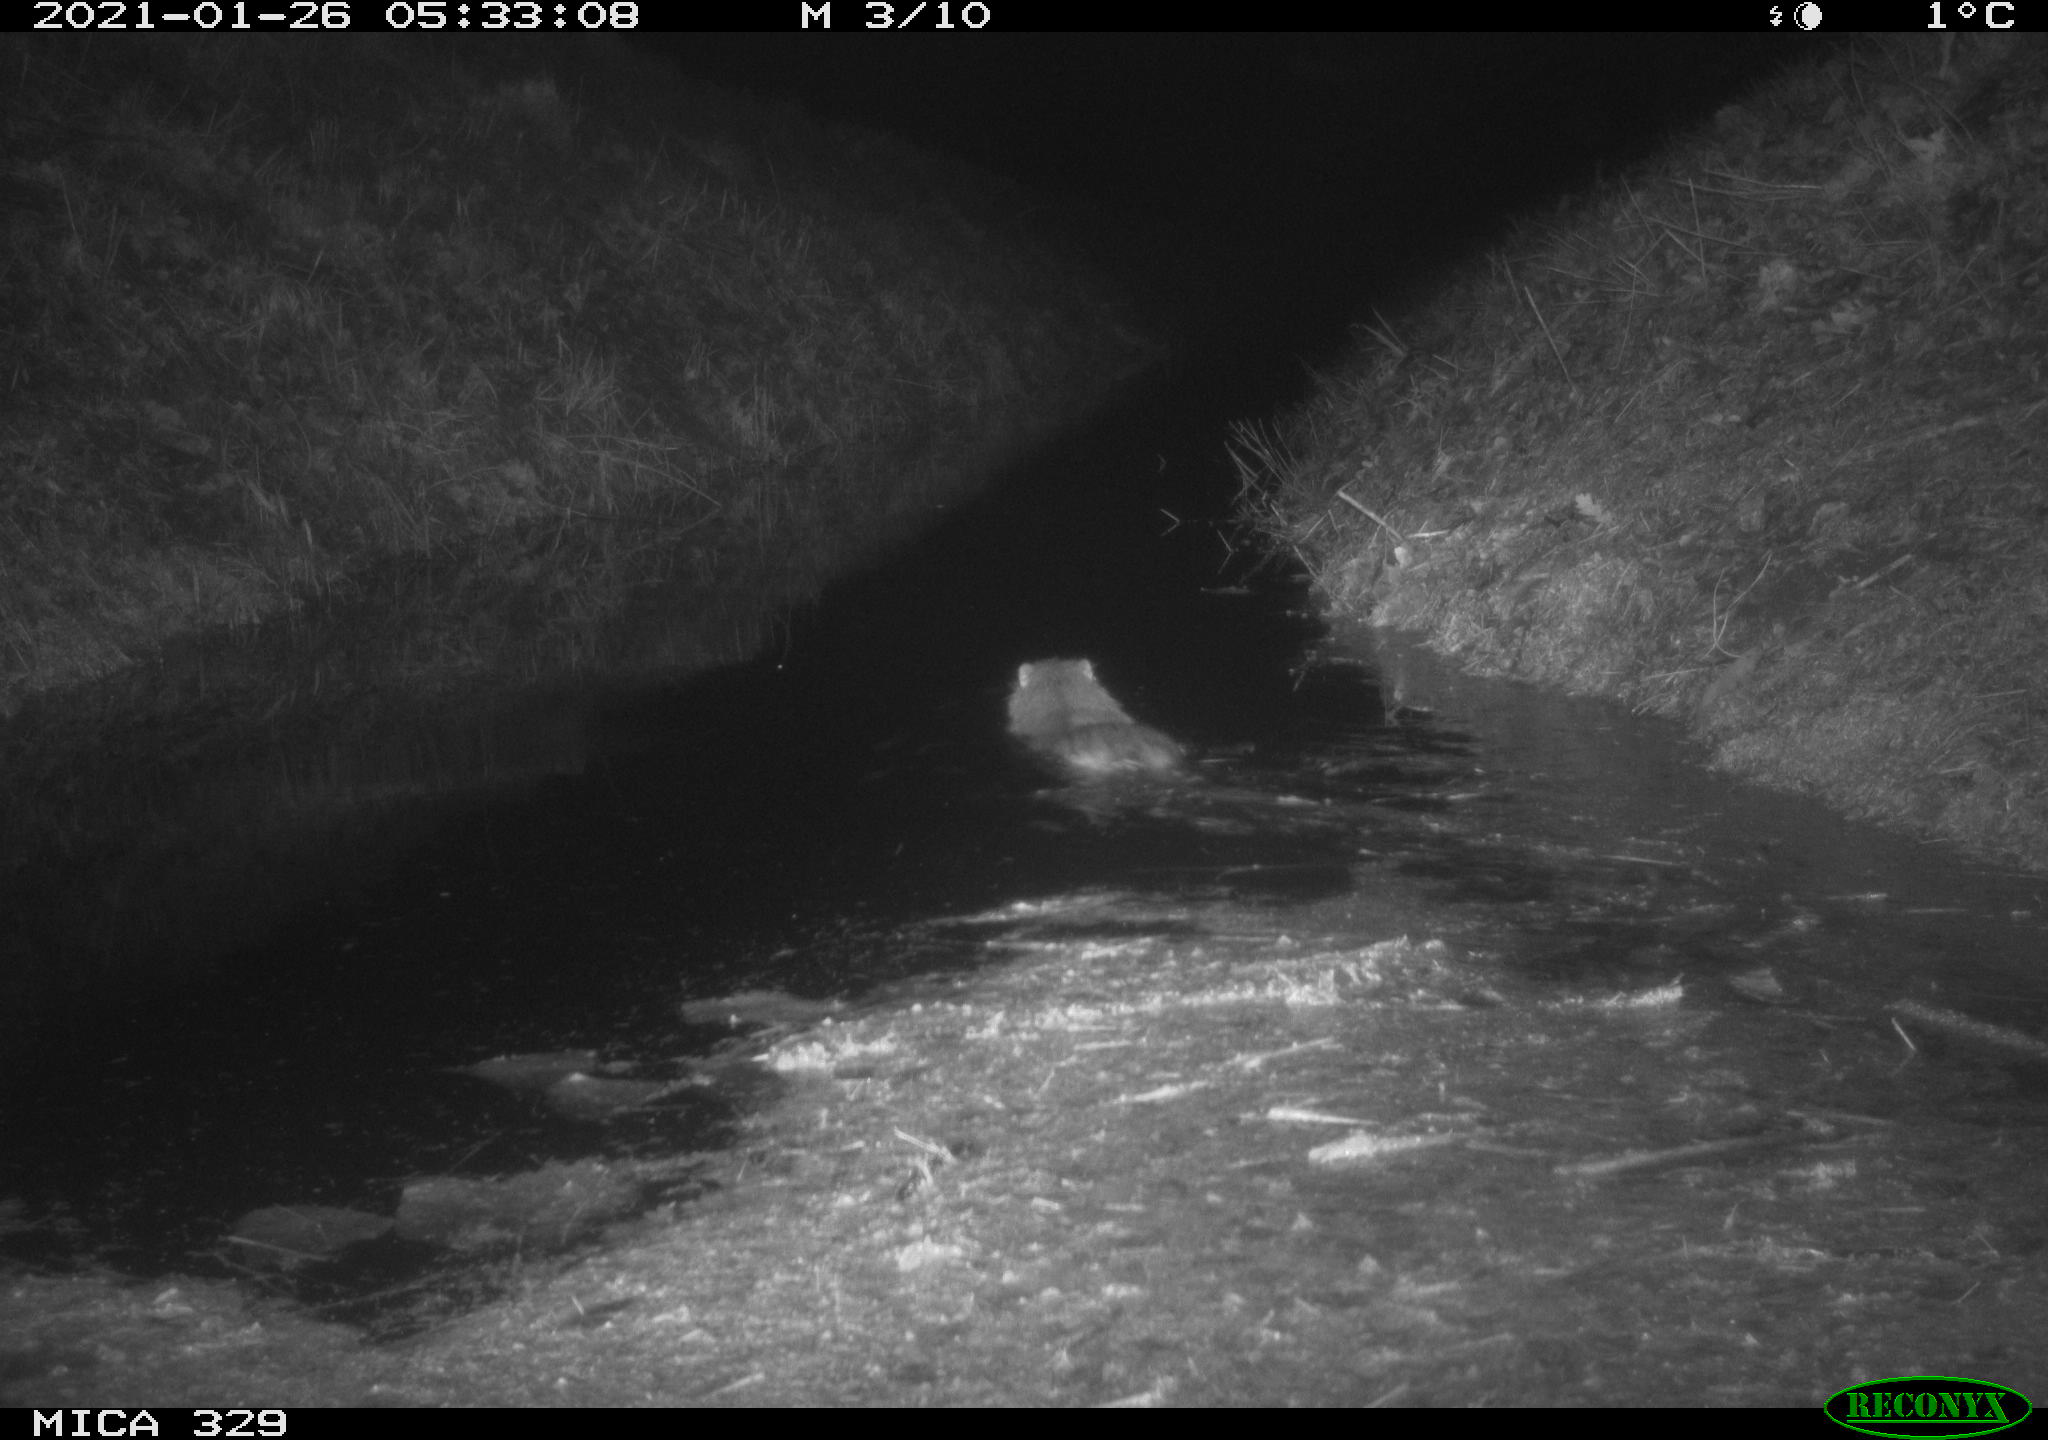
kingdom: Animalia
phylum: Chordata
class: Mammalia
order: Rodentia
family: Myocastoridae
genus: Myocastor
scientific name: Myocastor coypus
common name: Coypu
